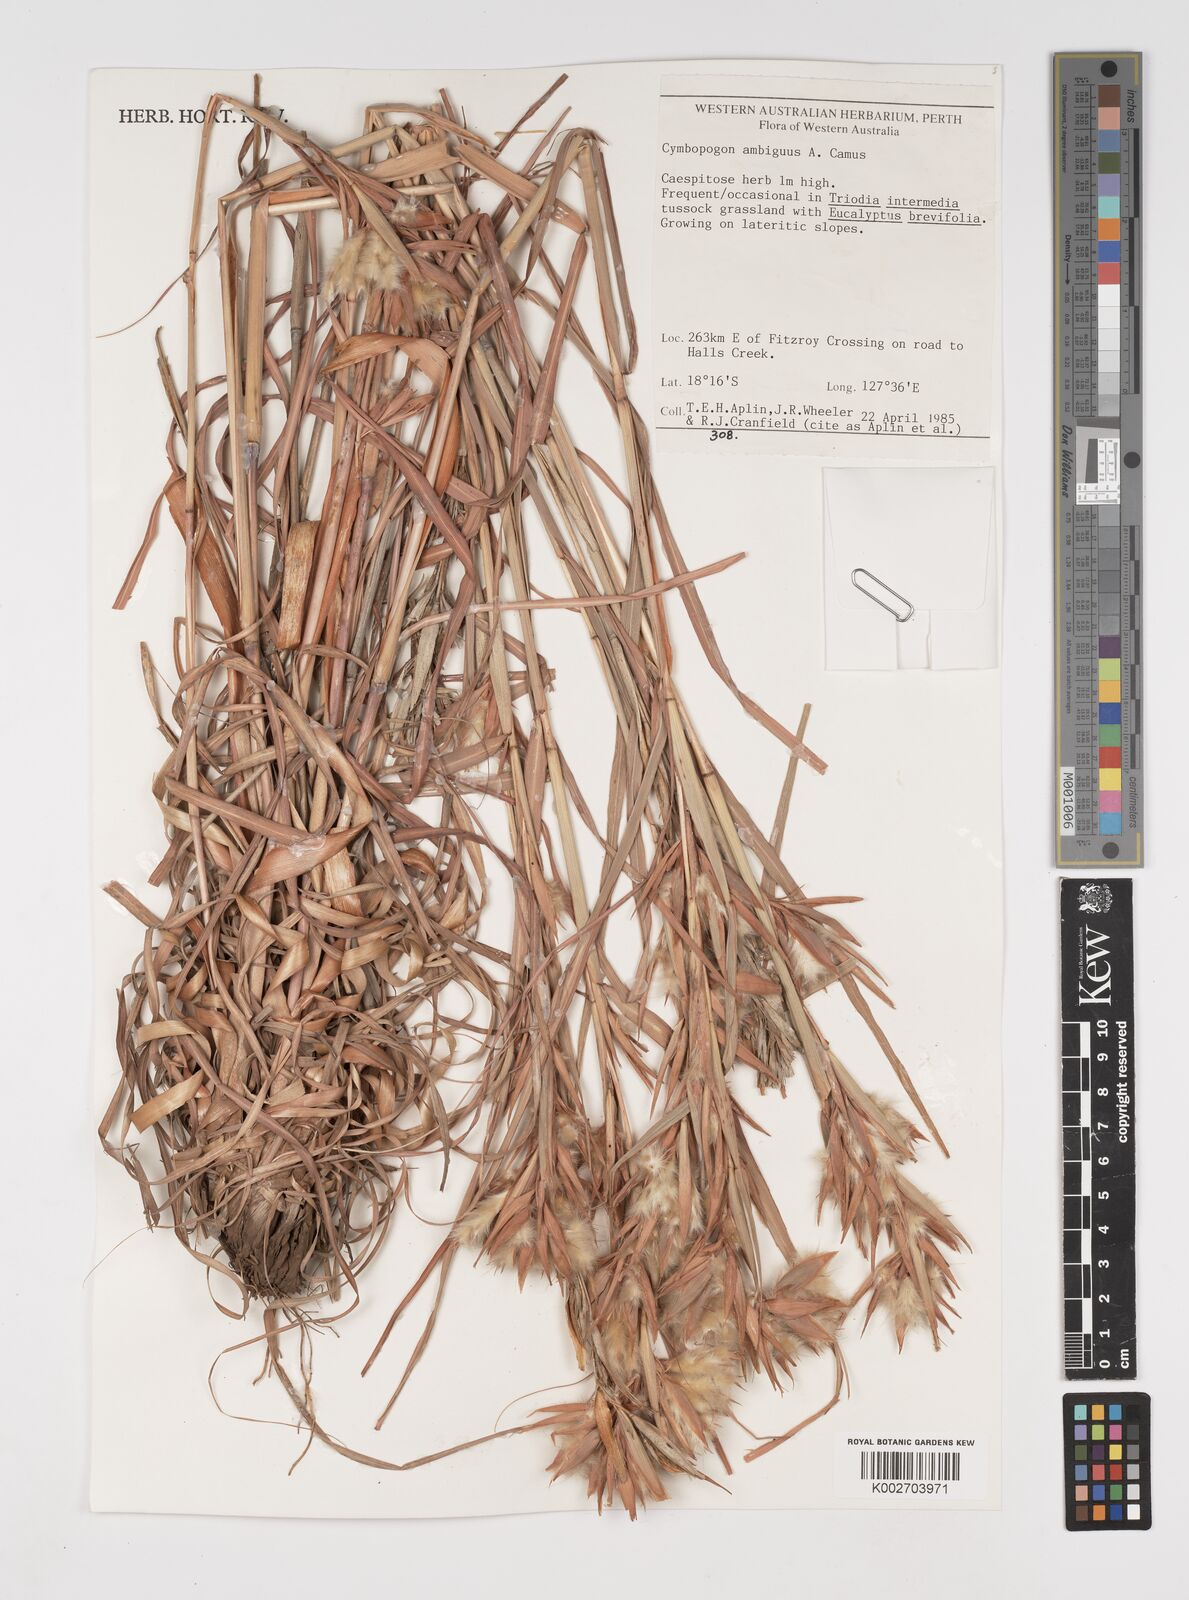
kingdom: Plantae
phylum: Tracheophyta
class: Liliopsida
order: Poales
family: Poaceae
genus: Cymbopogon
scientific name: Cymbopogon ambiguus
